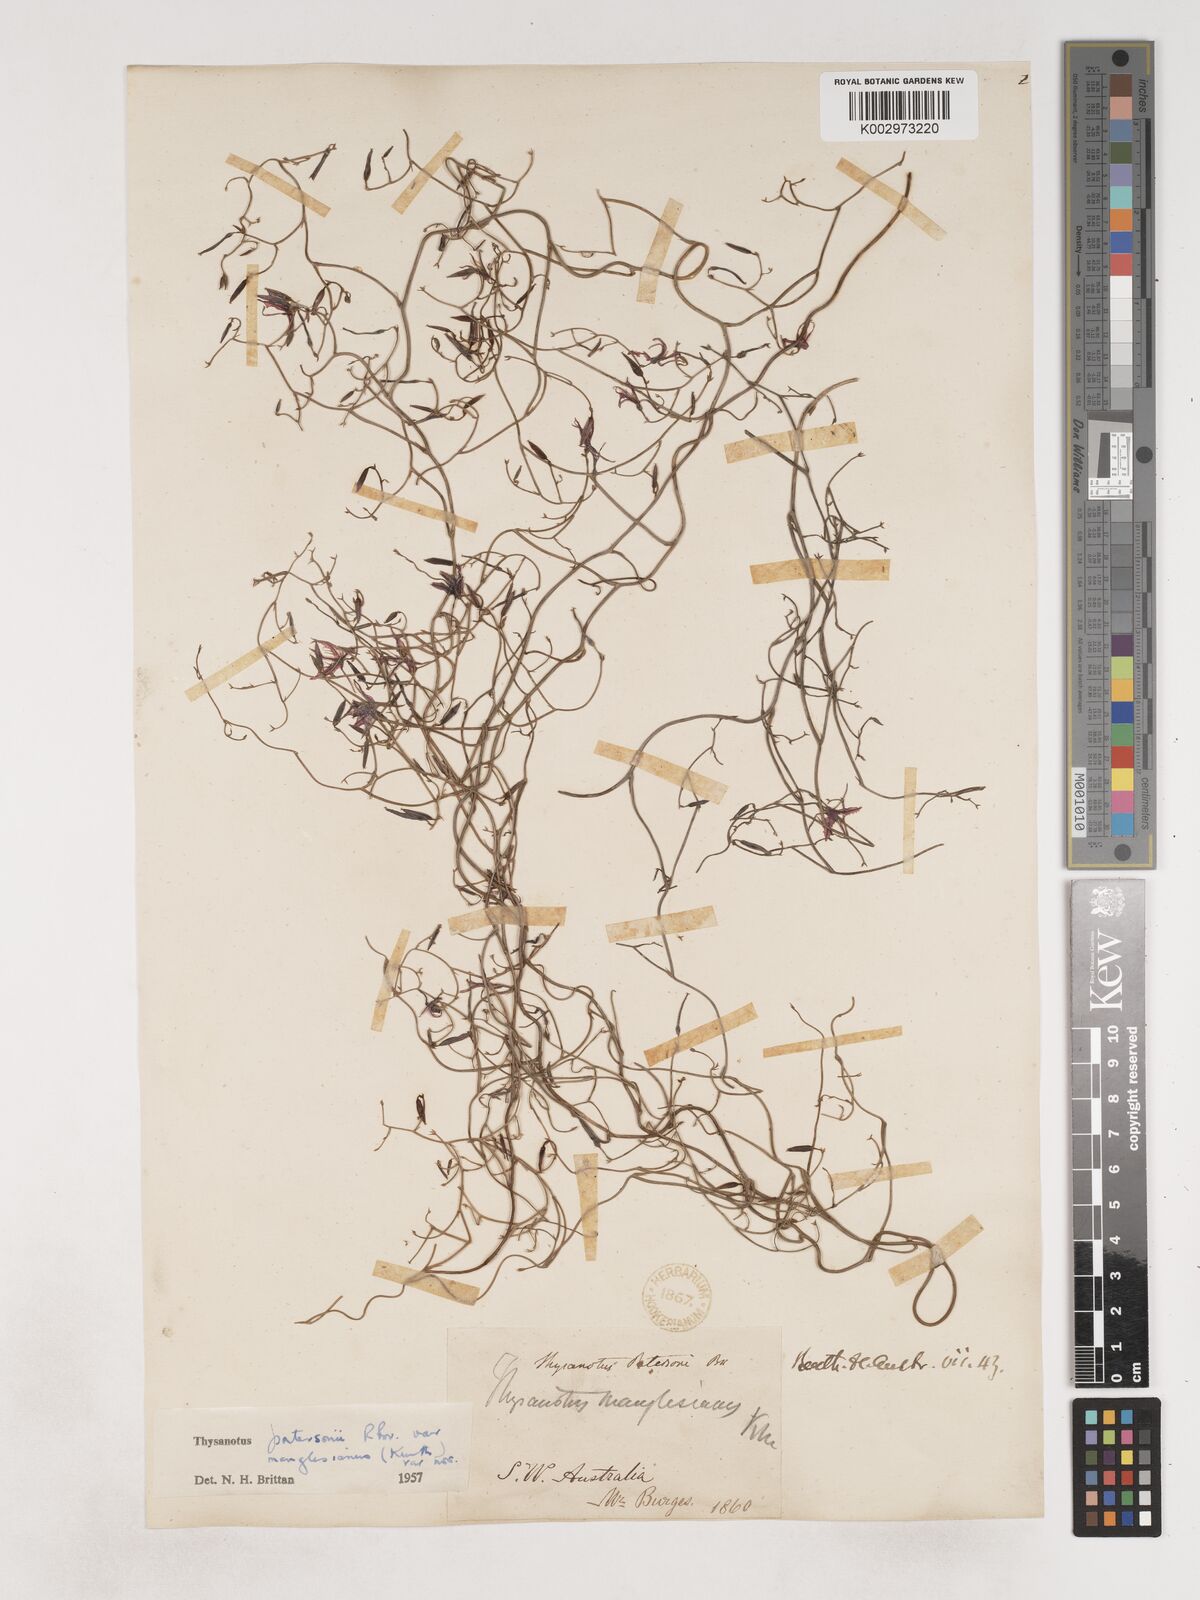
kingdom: Plantae
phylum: Tracheophyta
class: Liliopsida
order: Asparagales
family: Asparagaceae
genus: Thysanotus
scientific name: Thysanotus manglesianus
